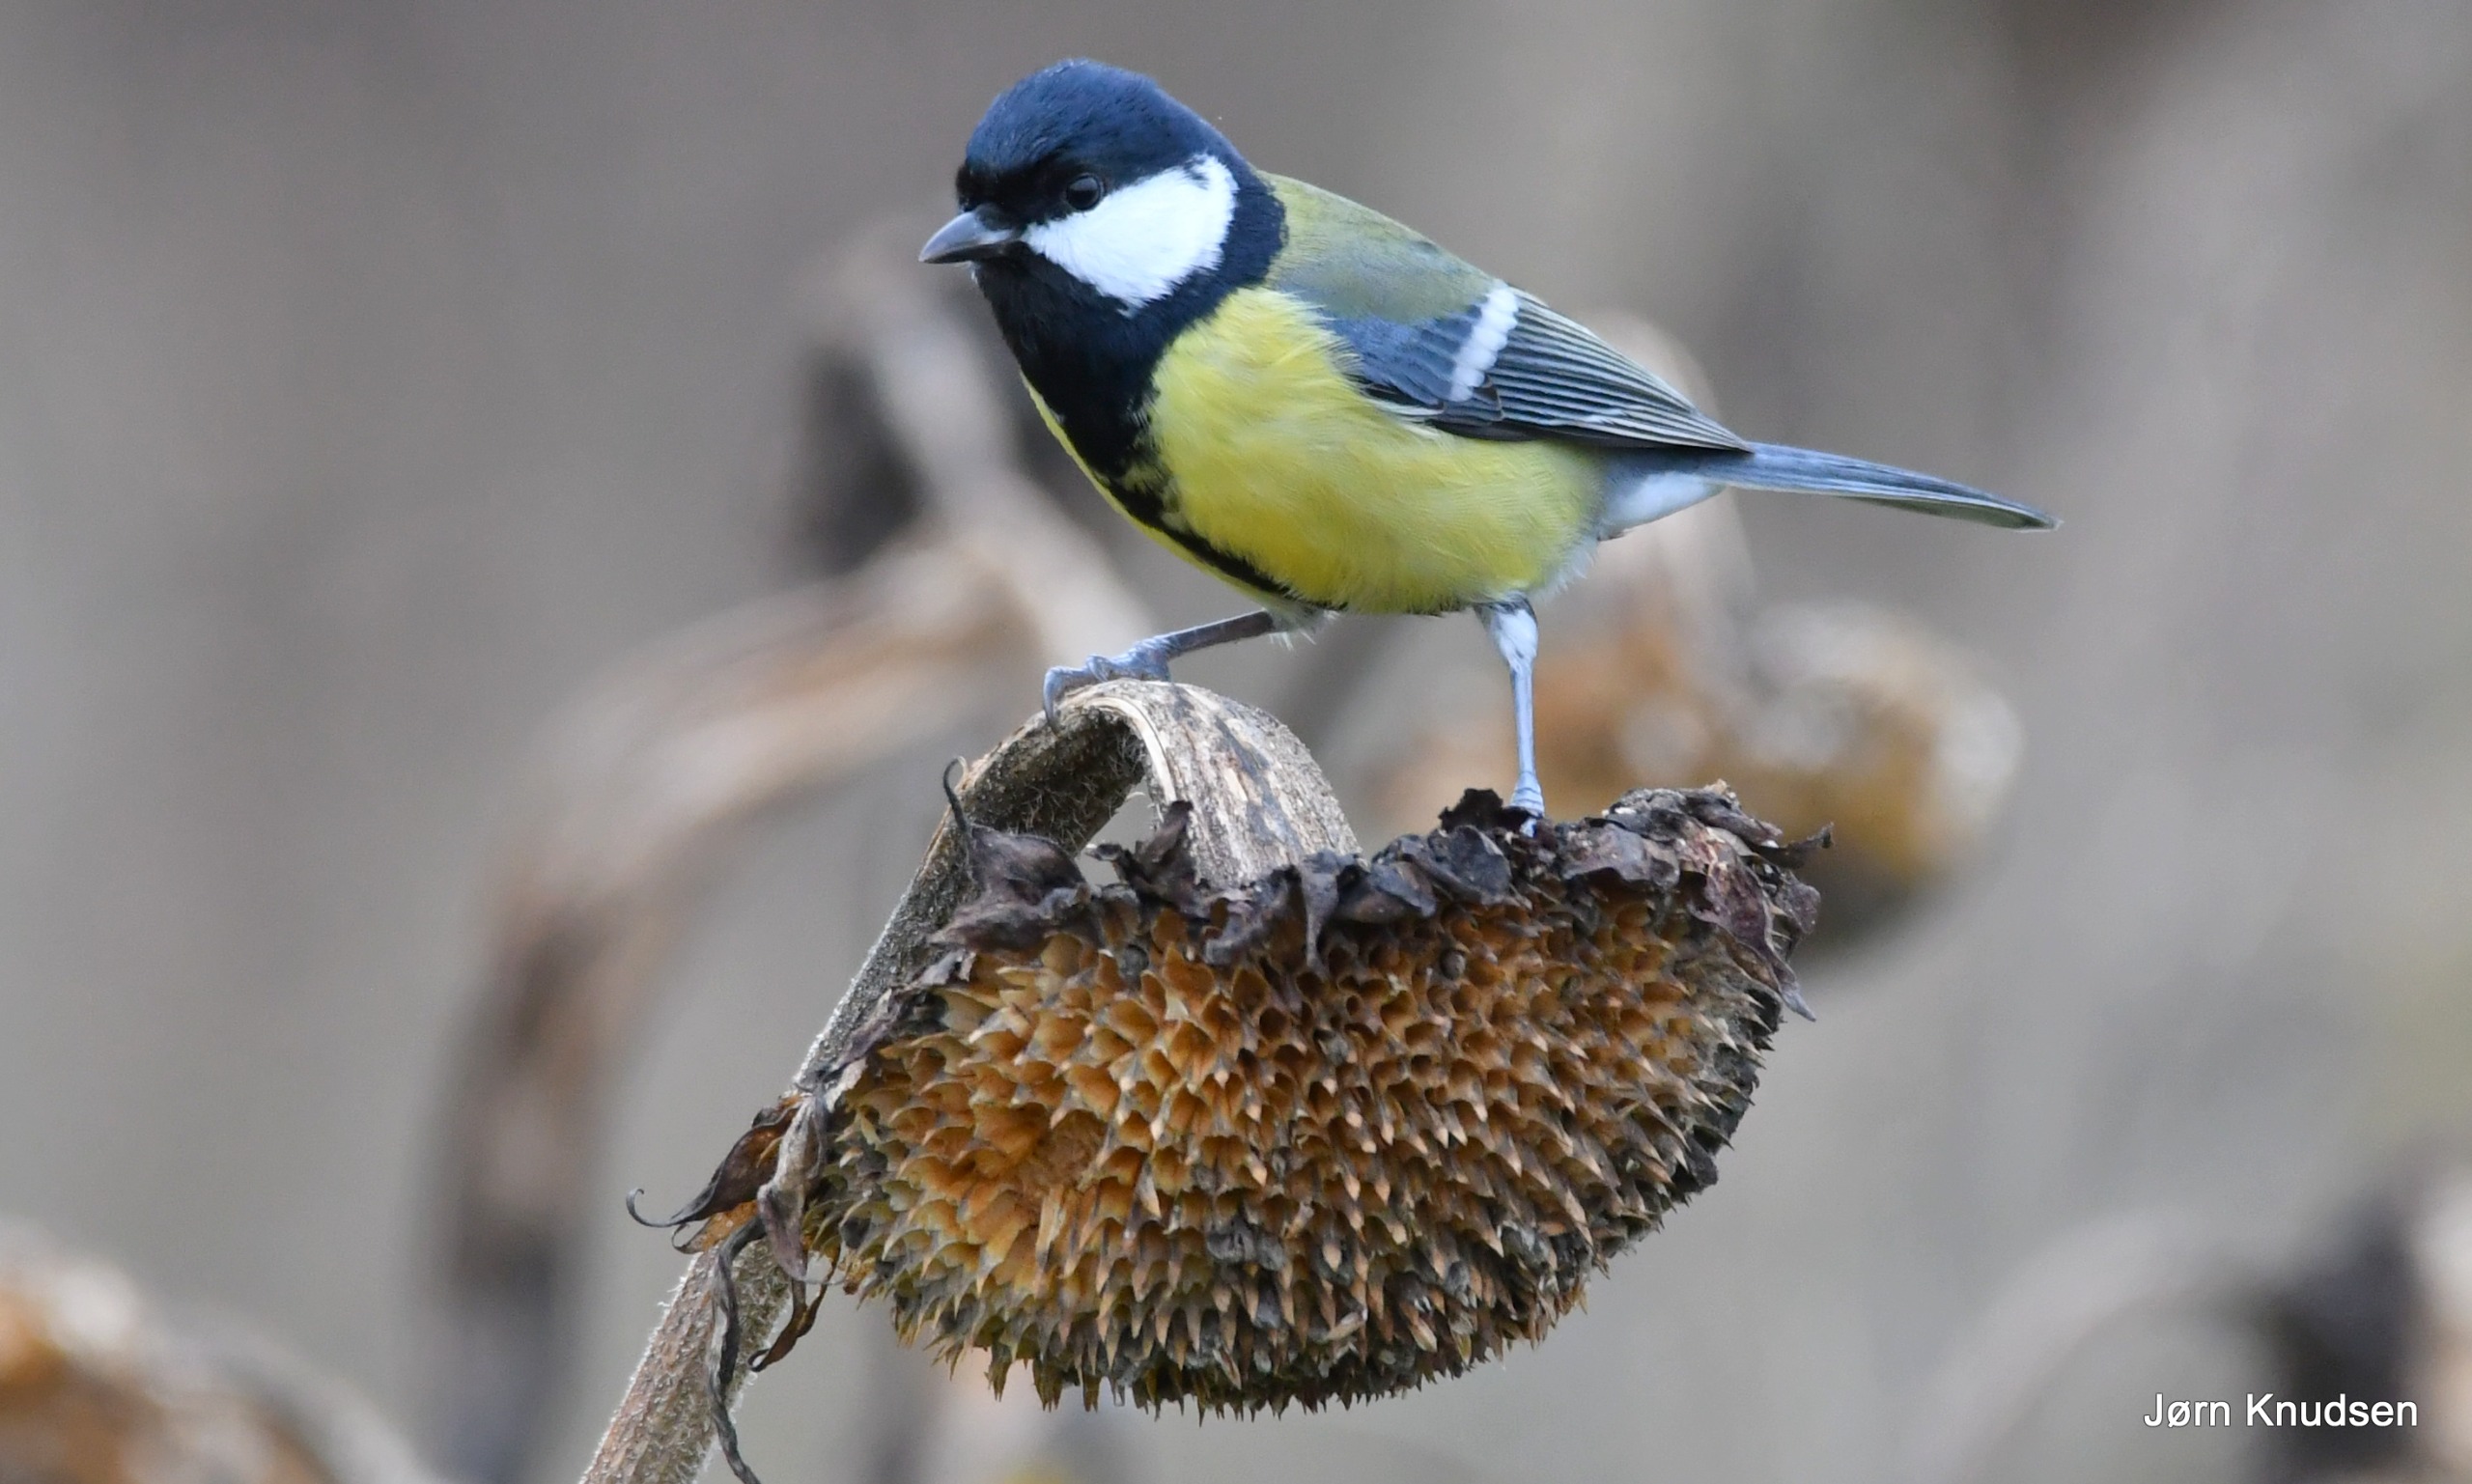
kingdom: Animalia
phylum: Chordata
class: Aves
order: Passeriformes
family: Paridae
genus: Parus
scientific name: Parus major
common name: Musvit
